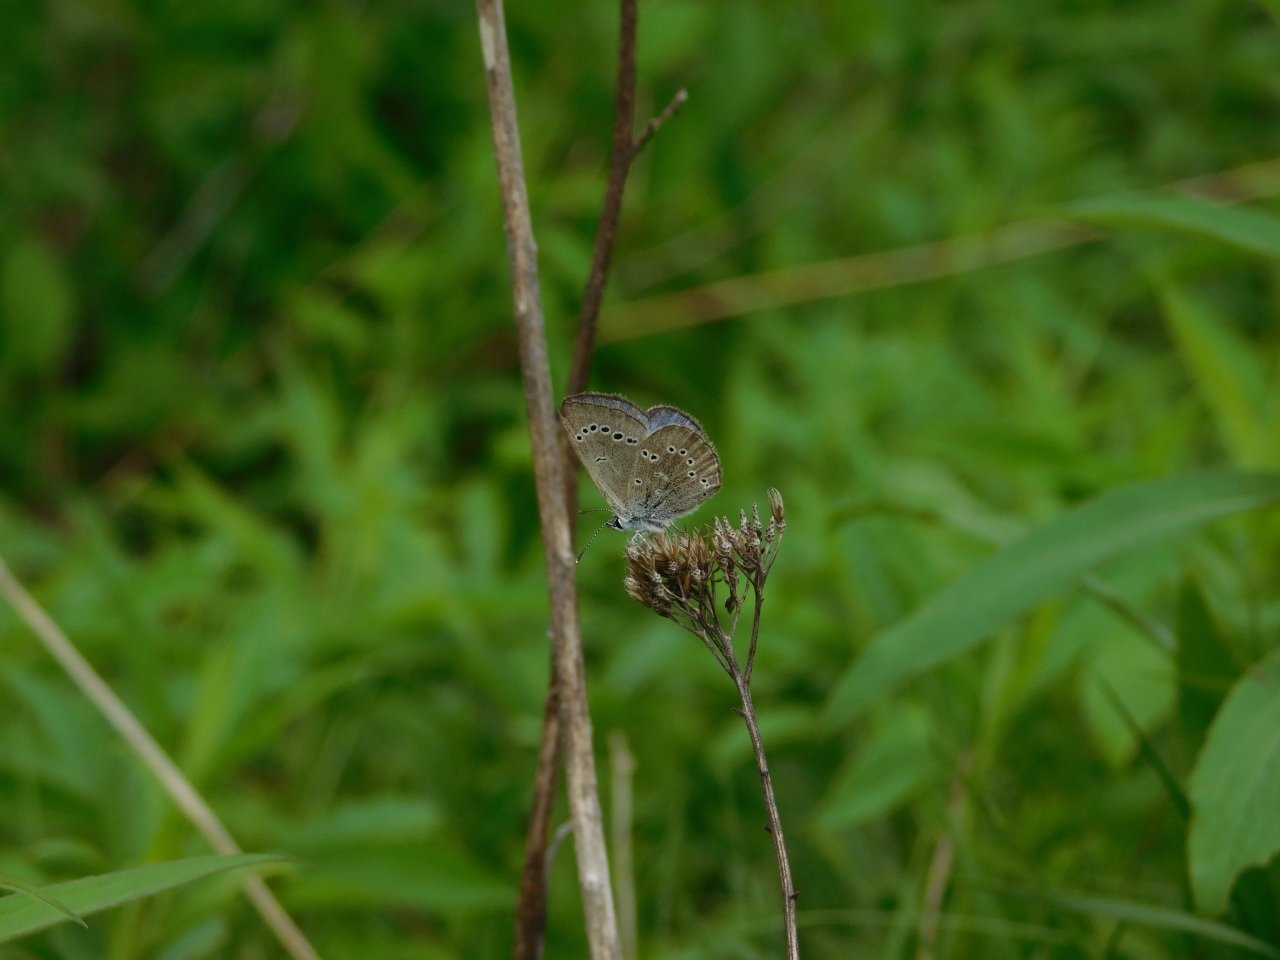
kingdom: Animalia
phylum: Arthropoda
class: Insecta
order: Lepidoptera
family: Lycaenidae
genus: Glaucopsyche
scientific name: Glaucopsyche lygdamus
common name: Silvery Blue
